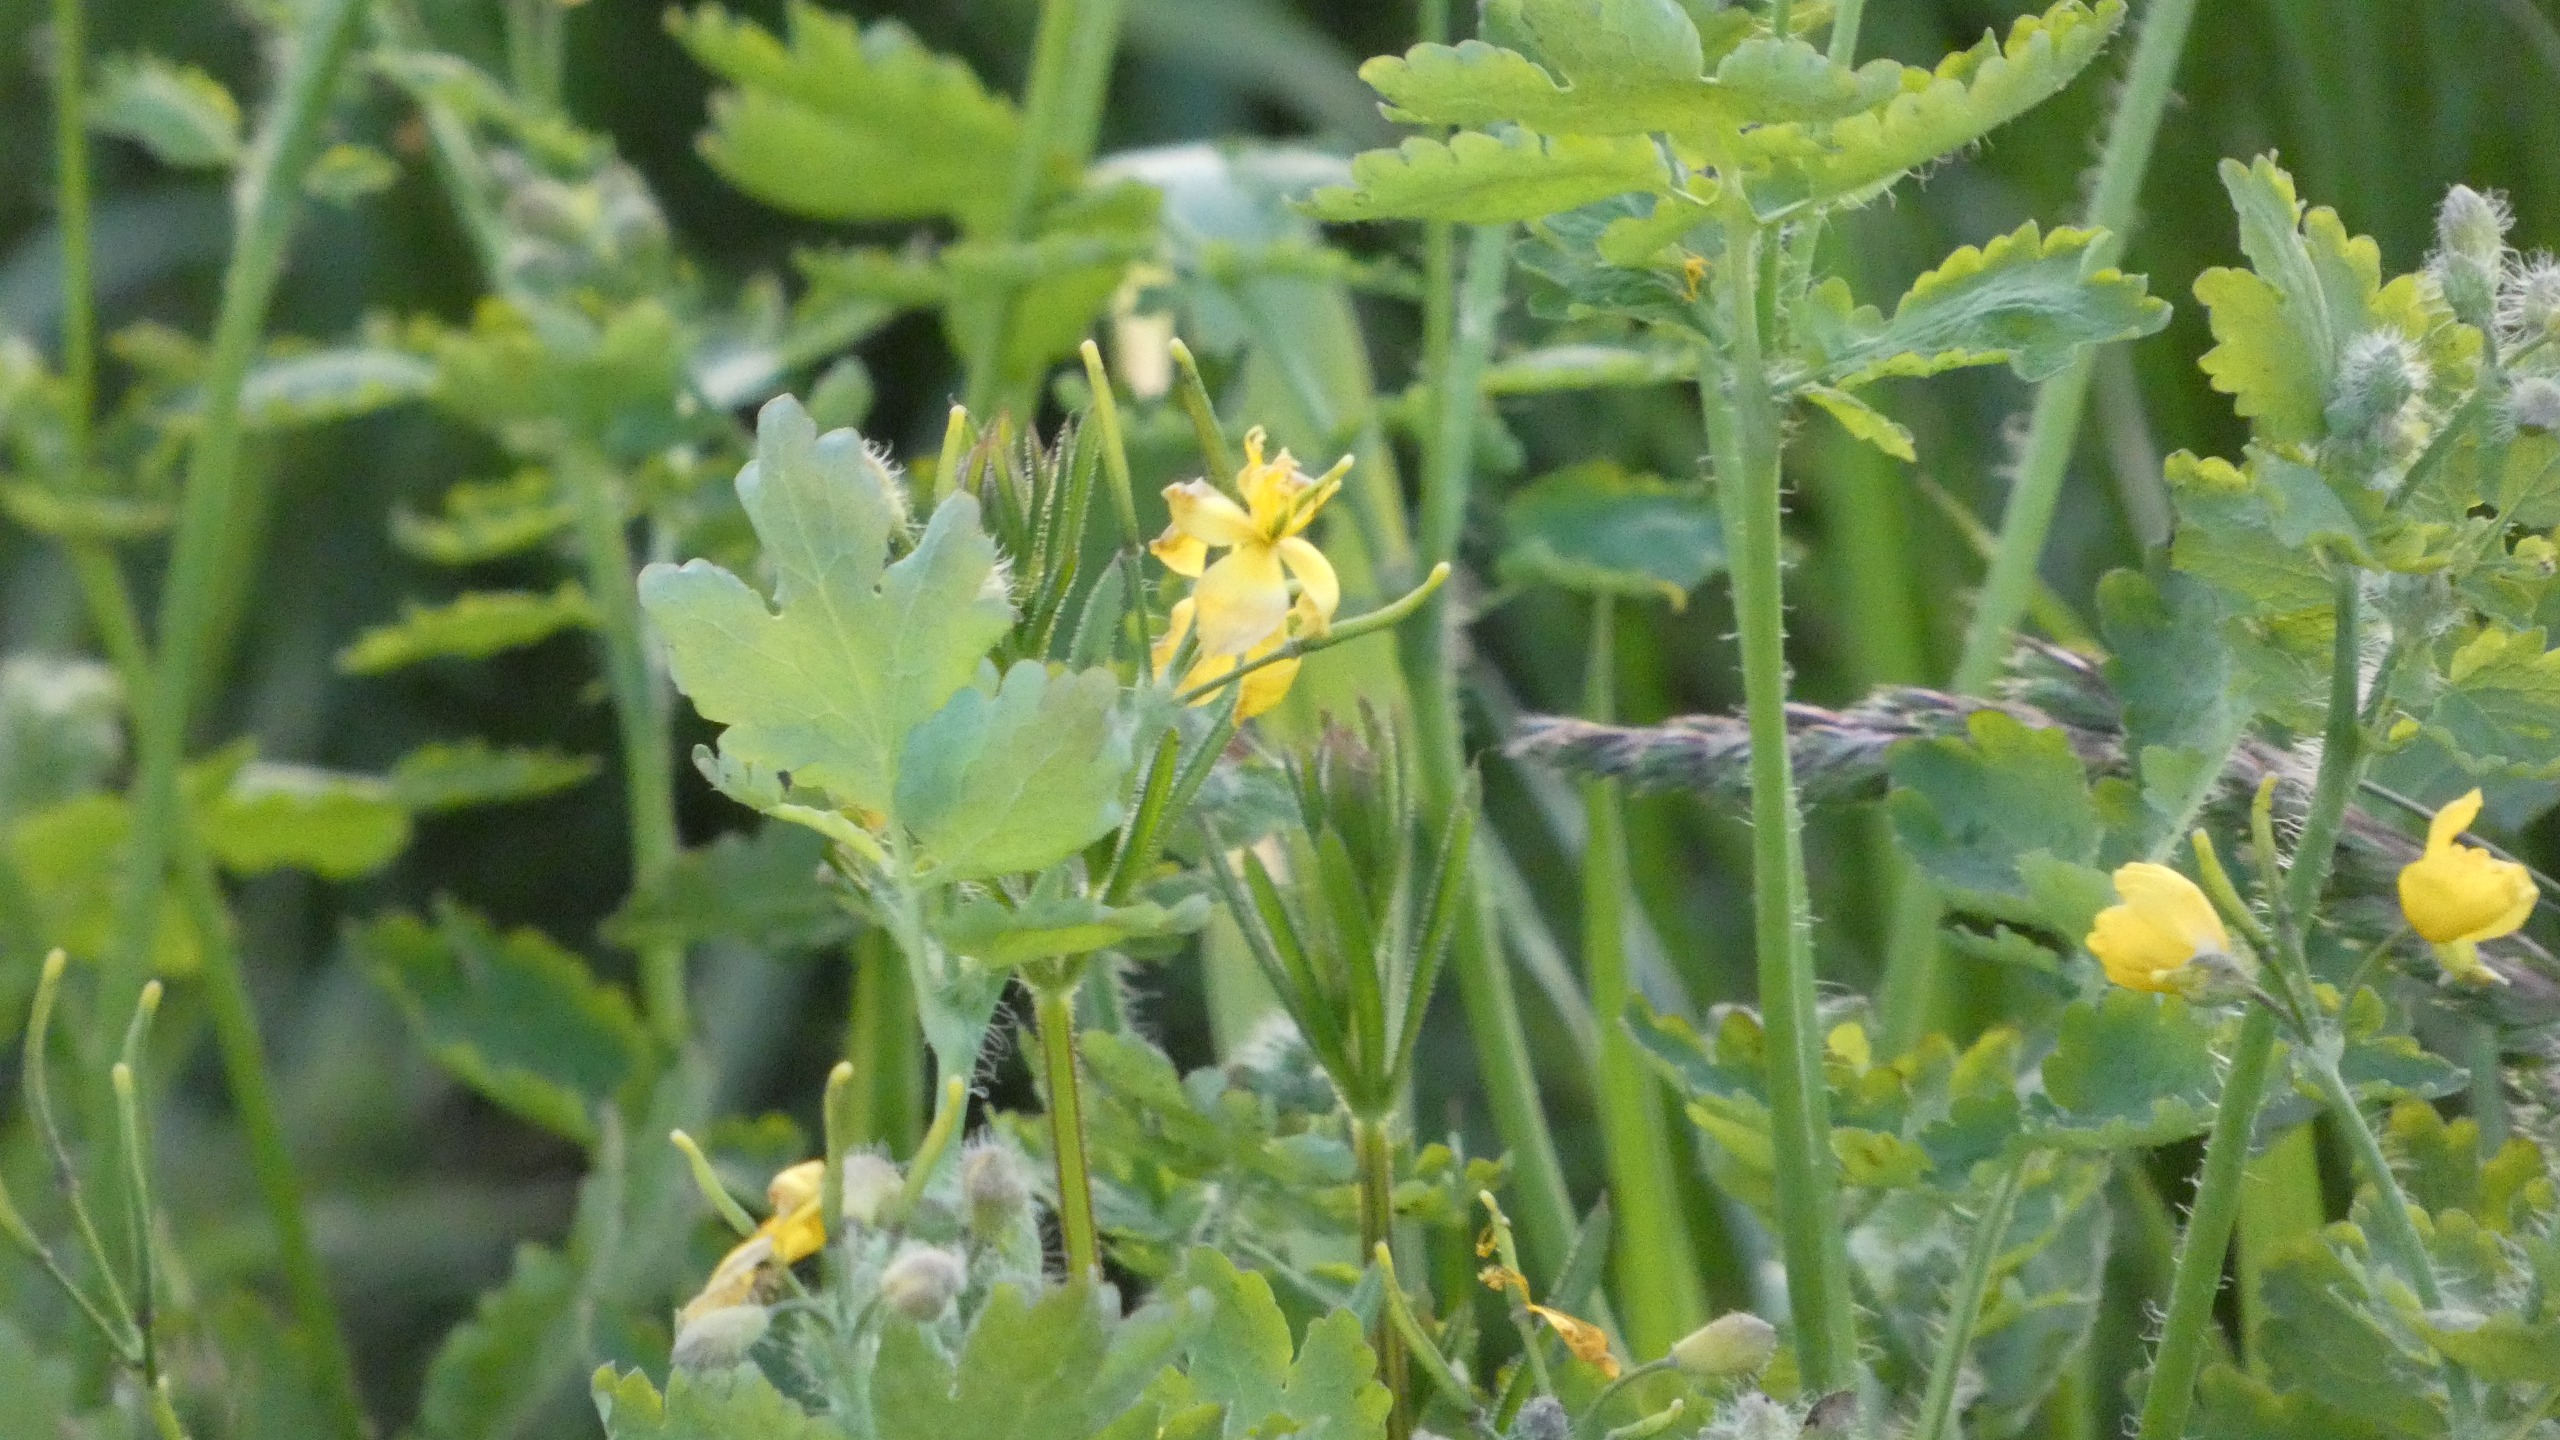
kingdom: Plantae
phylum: Tracheophyta
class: Magnoliopsida
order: Ranunculales
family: Papaveraceae
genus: Chelidonium
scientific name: Chelidonium majus
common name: Svaleurt
